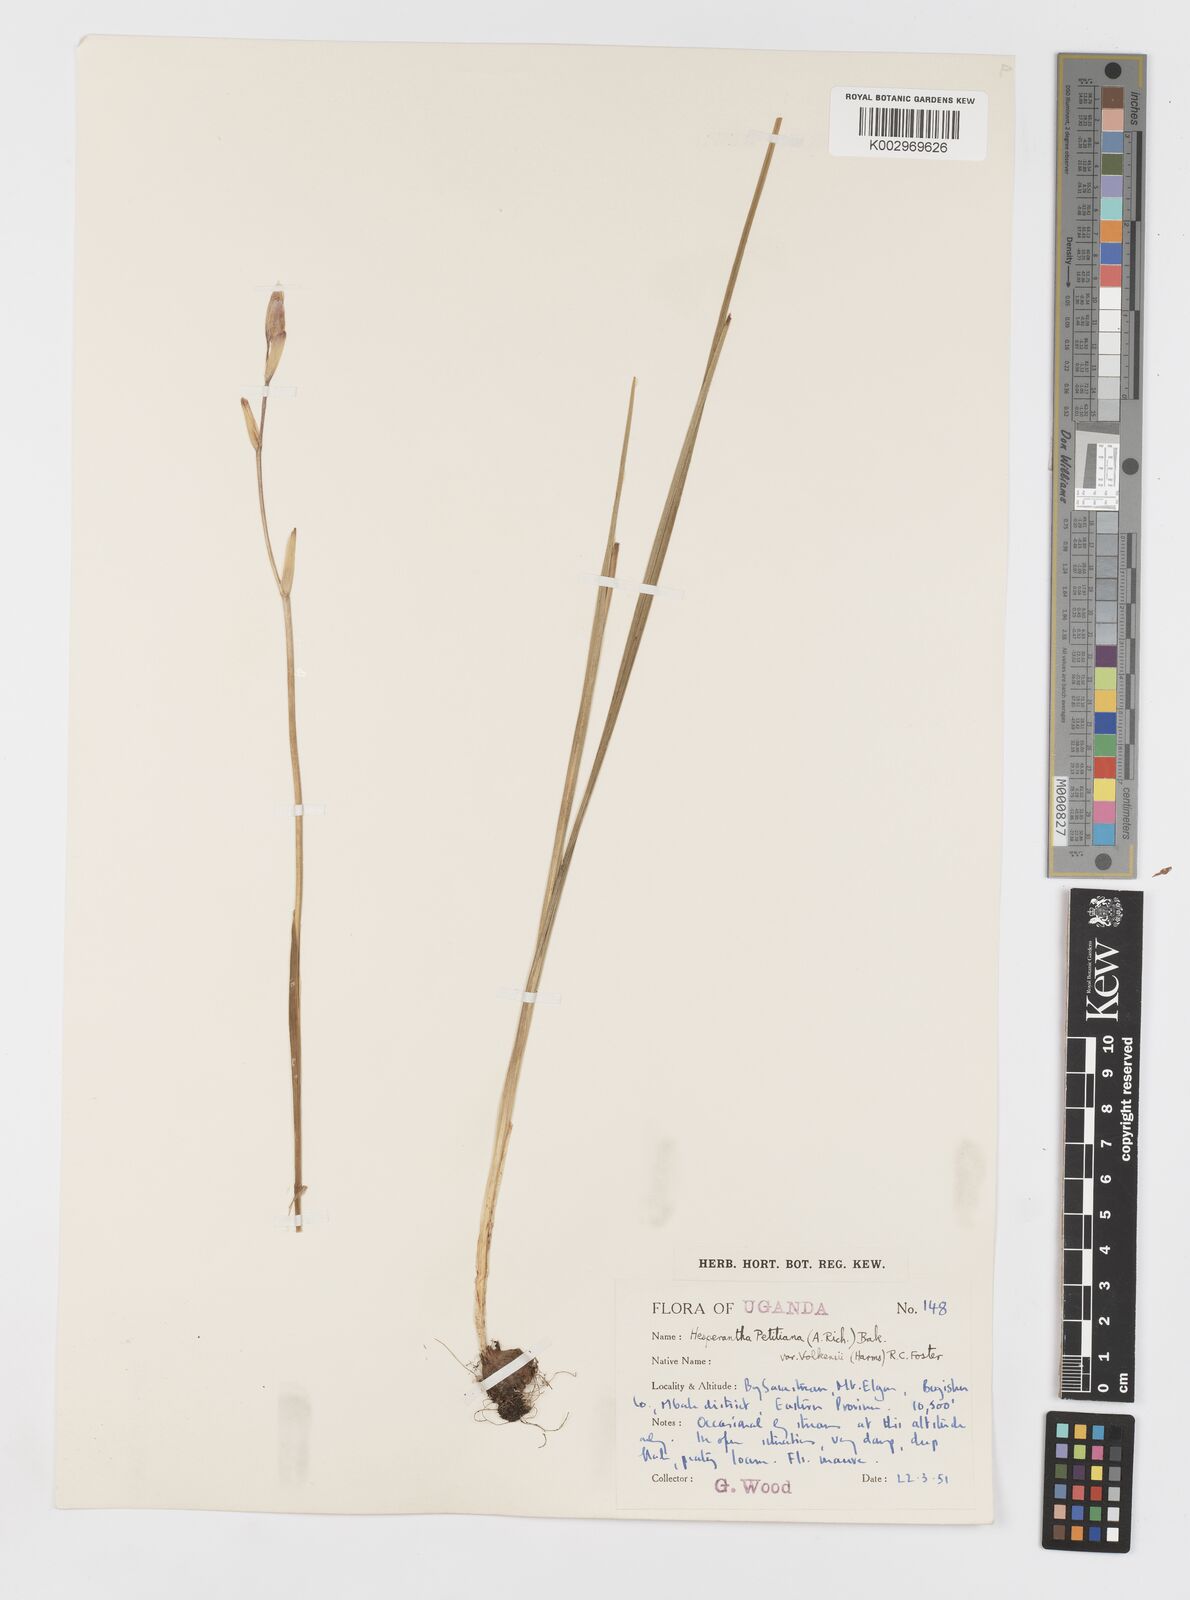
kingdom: Plantae
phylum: Tracheophyta
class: Liliopsida
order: Asparagales
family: Iridaceae
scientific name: Iridaceae
